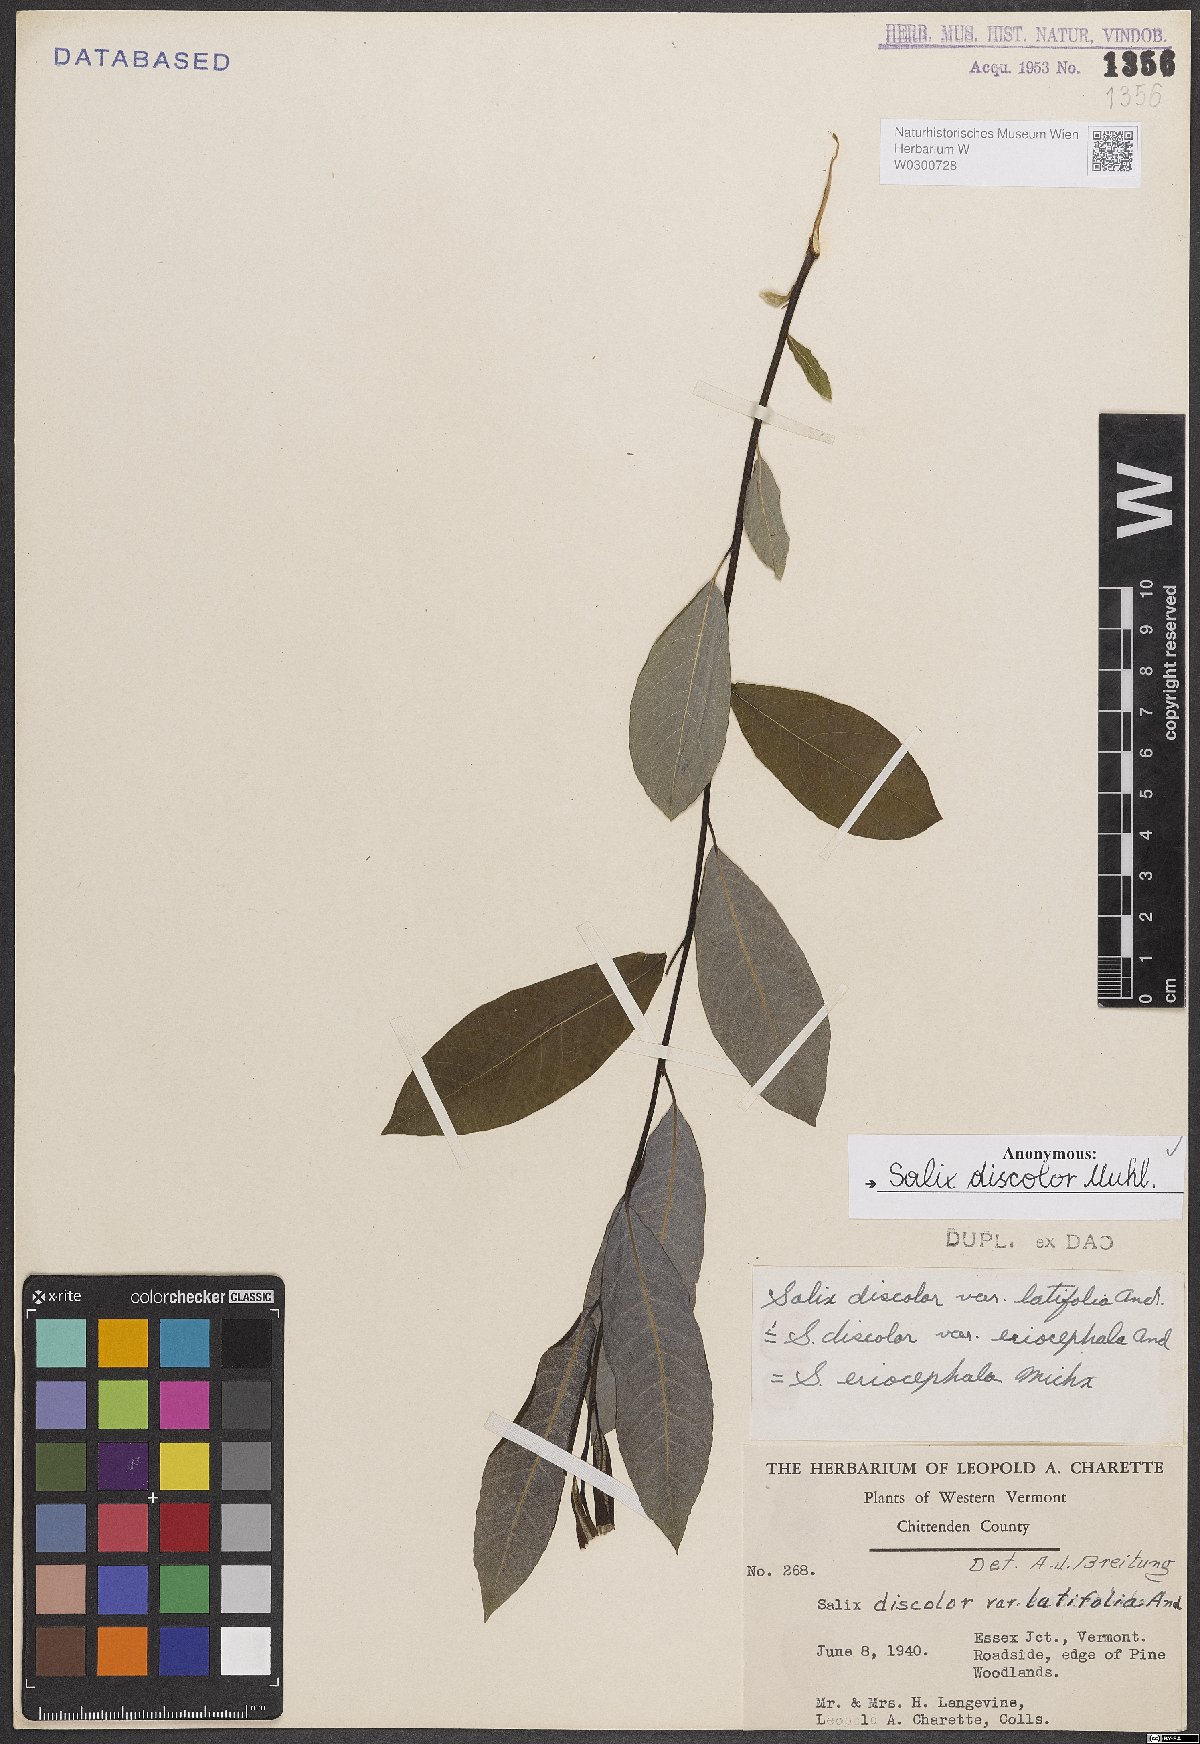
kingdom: Plantae
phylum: Tracheophyta
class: Magnoliopsida
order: Malpighiales
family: Salicaceae
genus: Salix
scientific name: Salix discolor
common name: Glaucous willow
